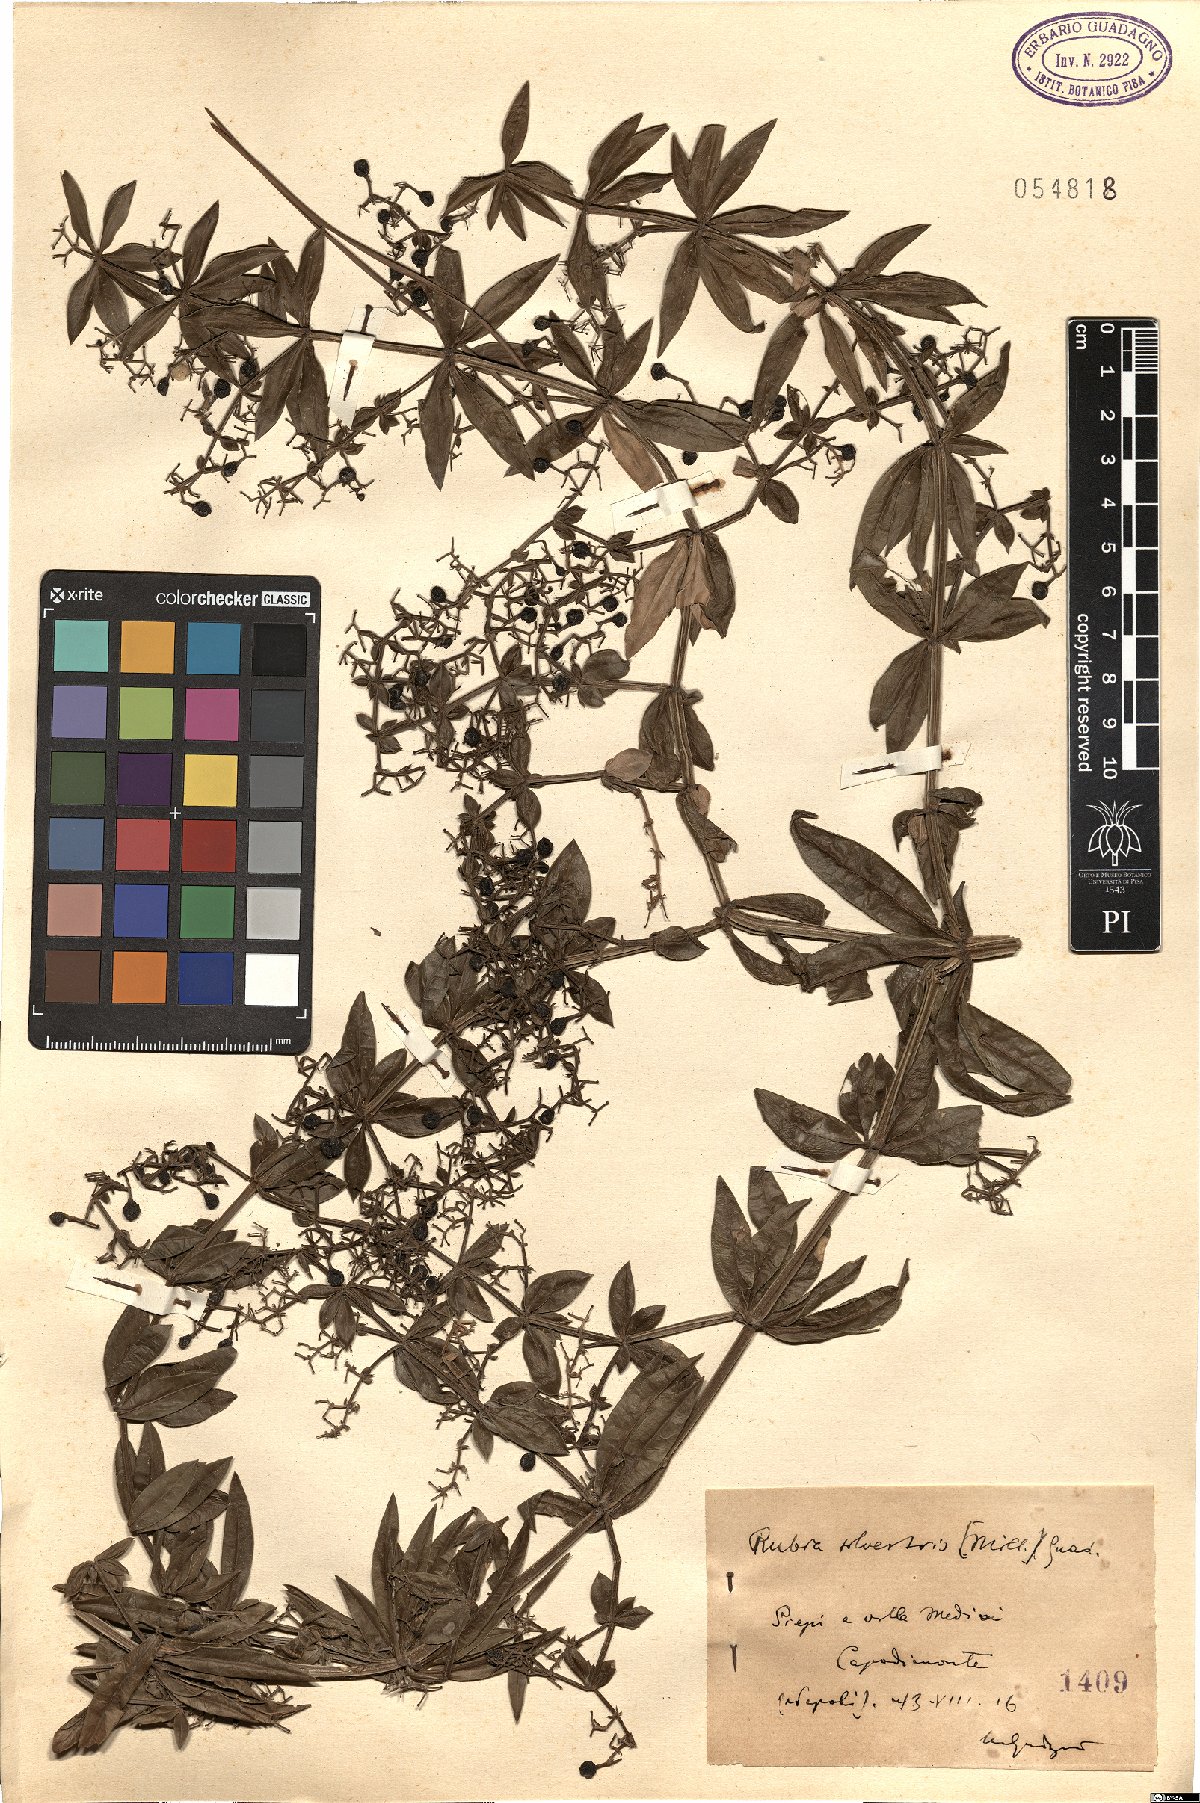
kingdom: Plantae
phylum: Tracheophyta
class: Magnoliopsida
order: Gentianales
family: Rubiaceae
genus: Rubia
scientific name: Rubia tinctorum
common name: Dyer's madder
